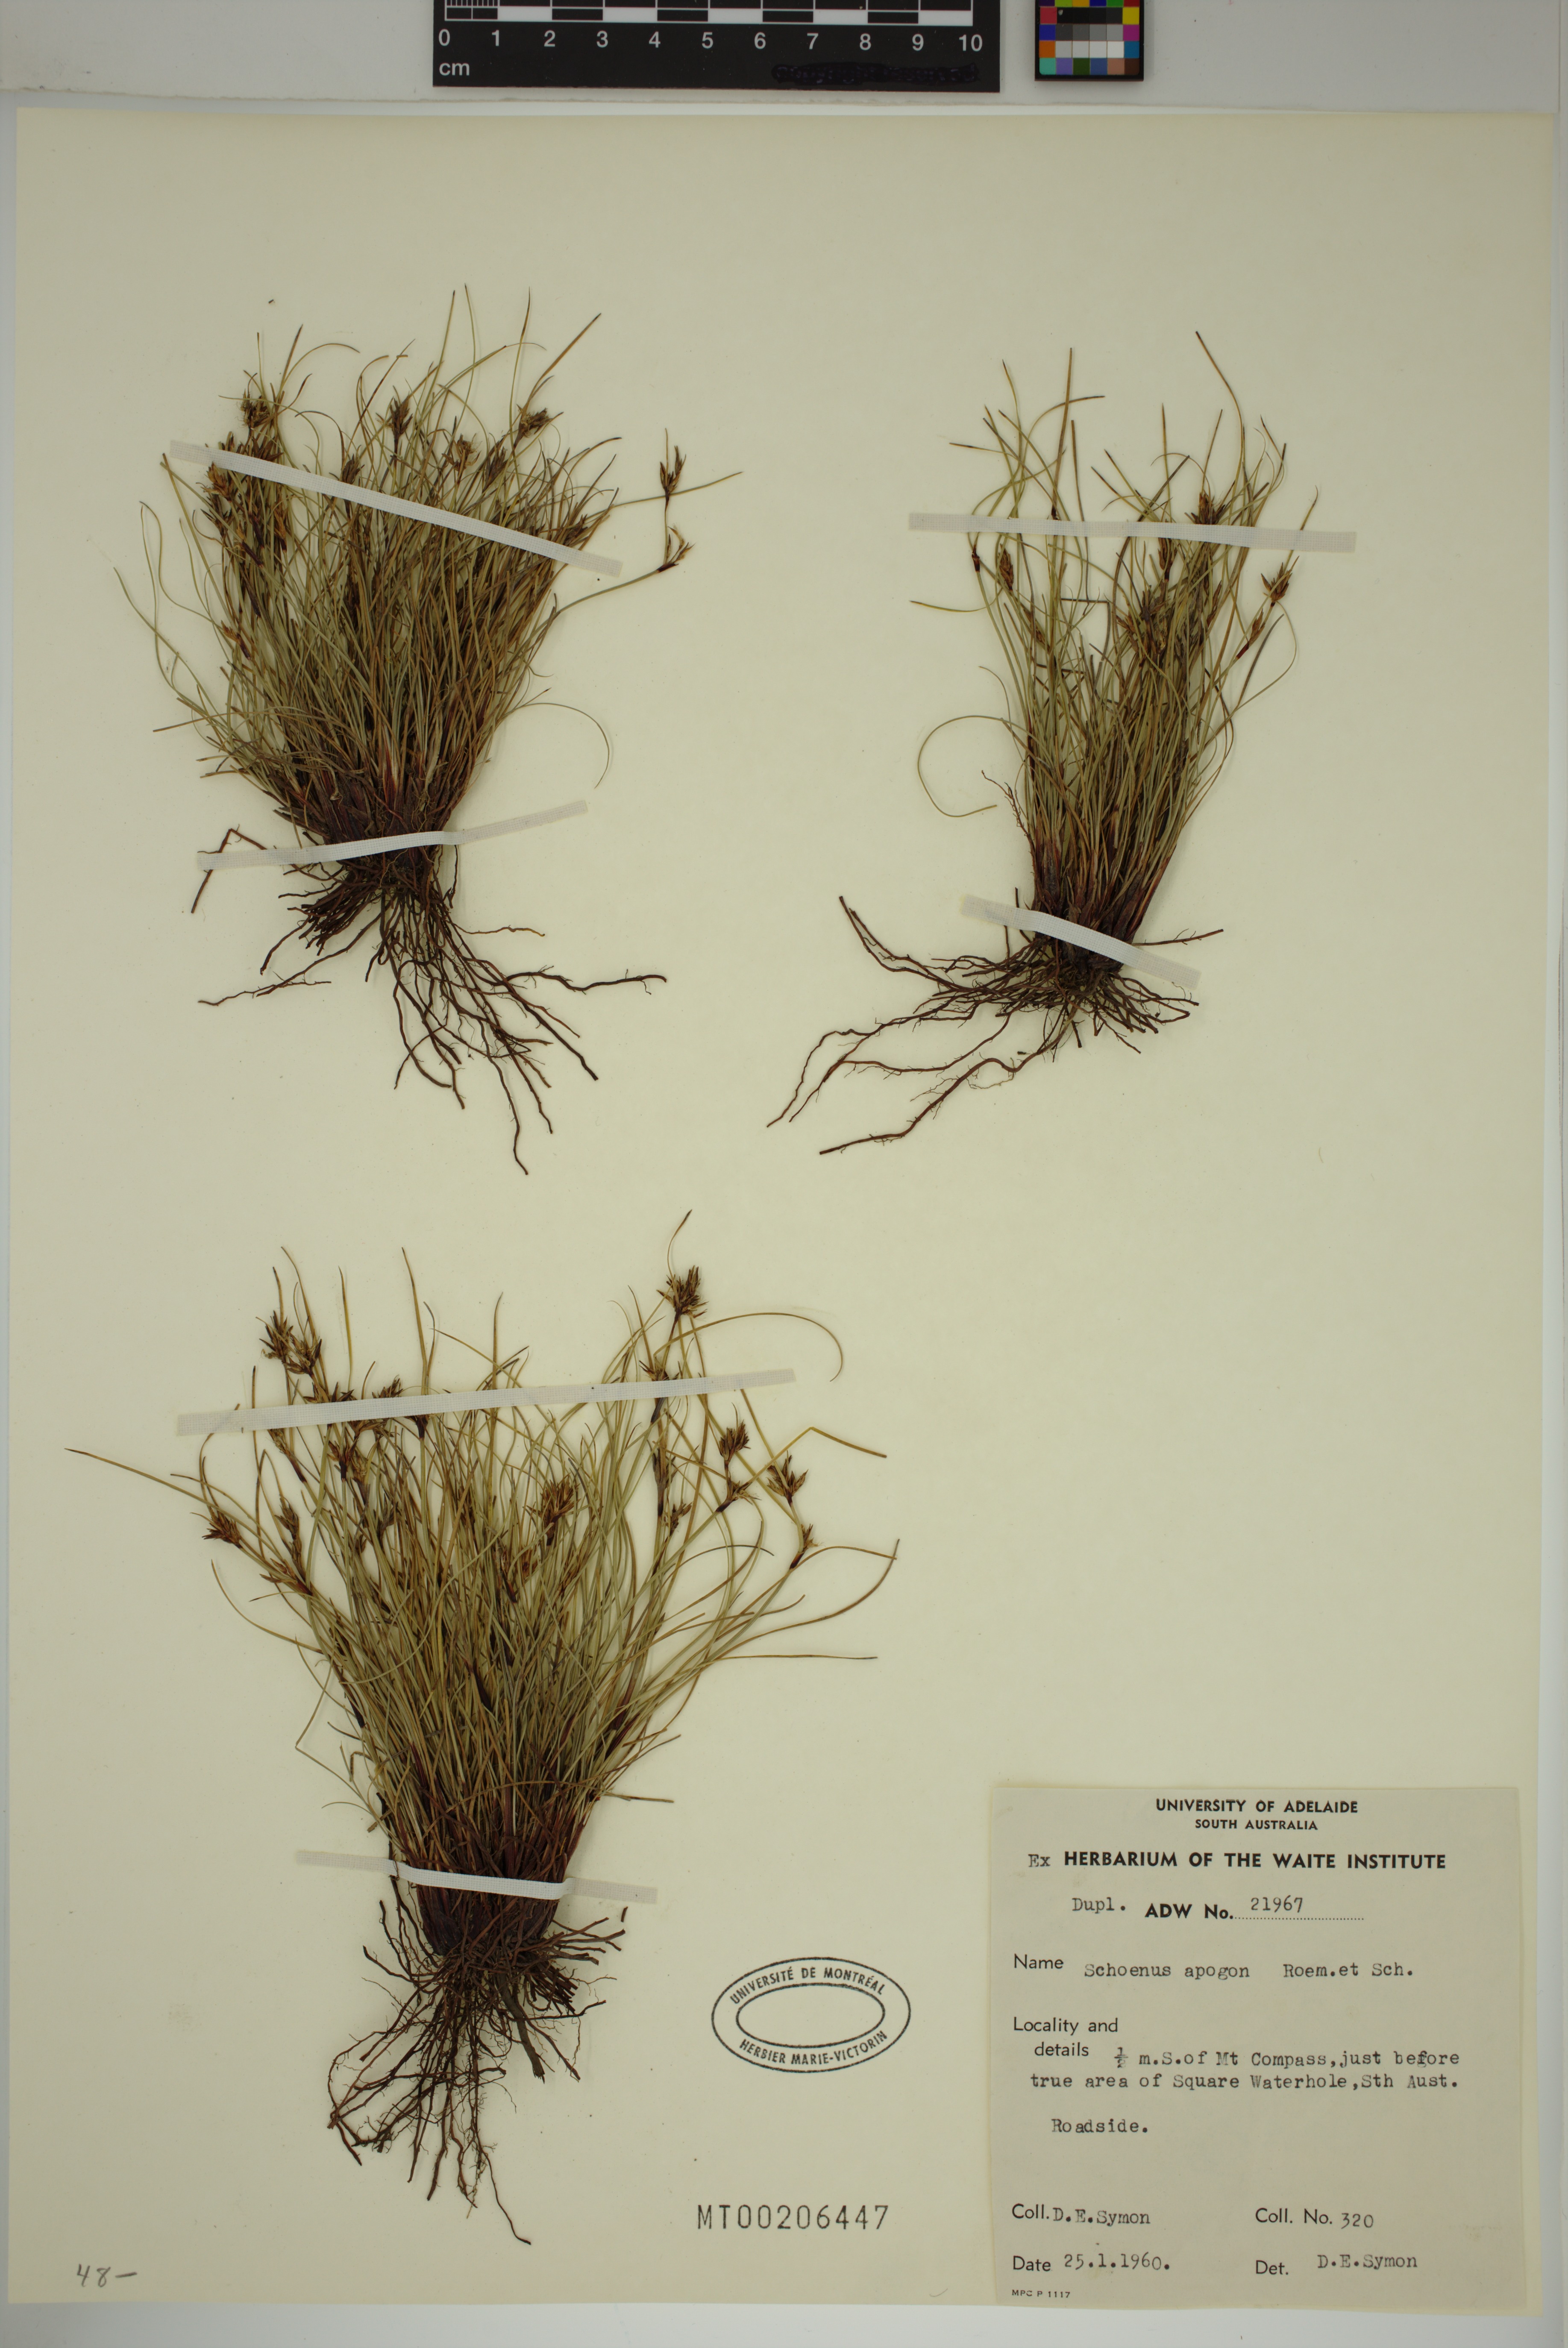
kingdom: Plantae
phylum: Tracheophyta
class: Liliopsida
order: Poales
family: Cyperaceae
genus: Schoenus
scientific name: Schoenus apogon
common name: Smooth bogrush
